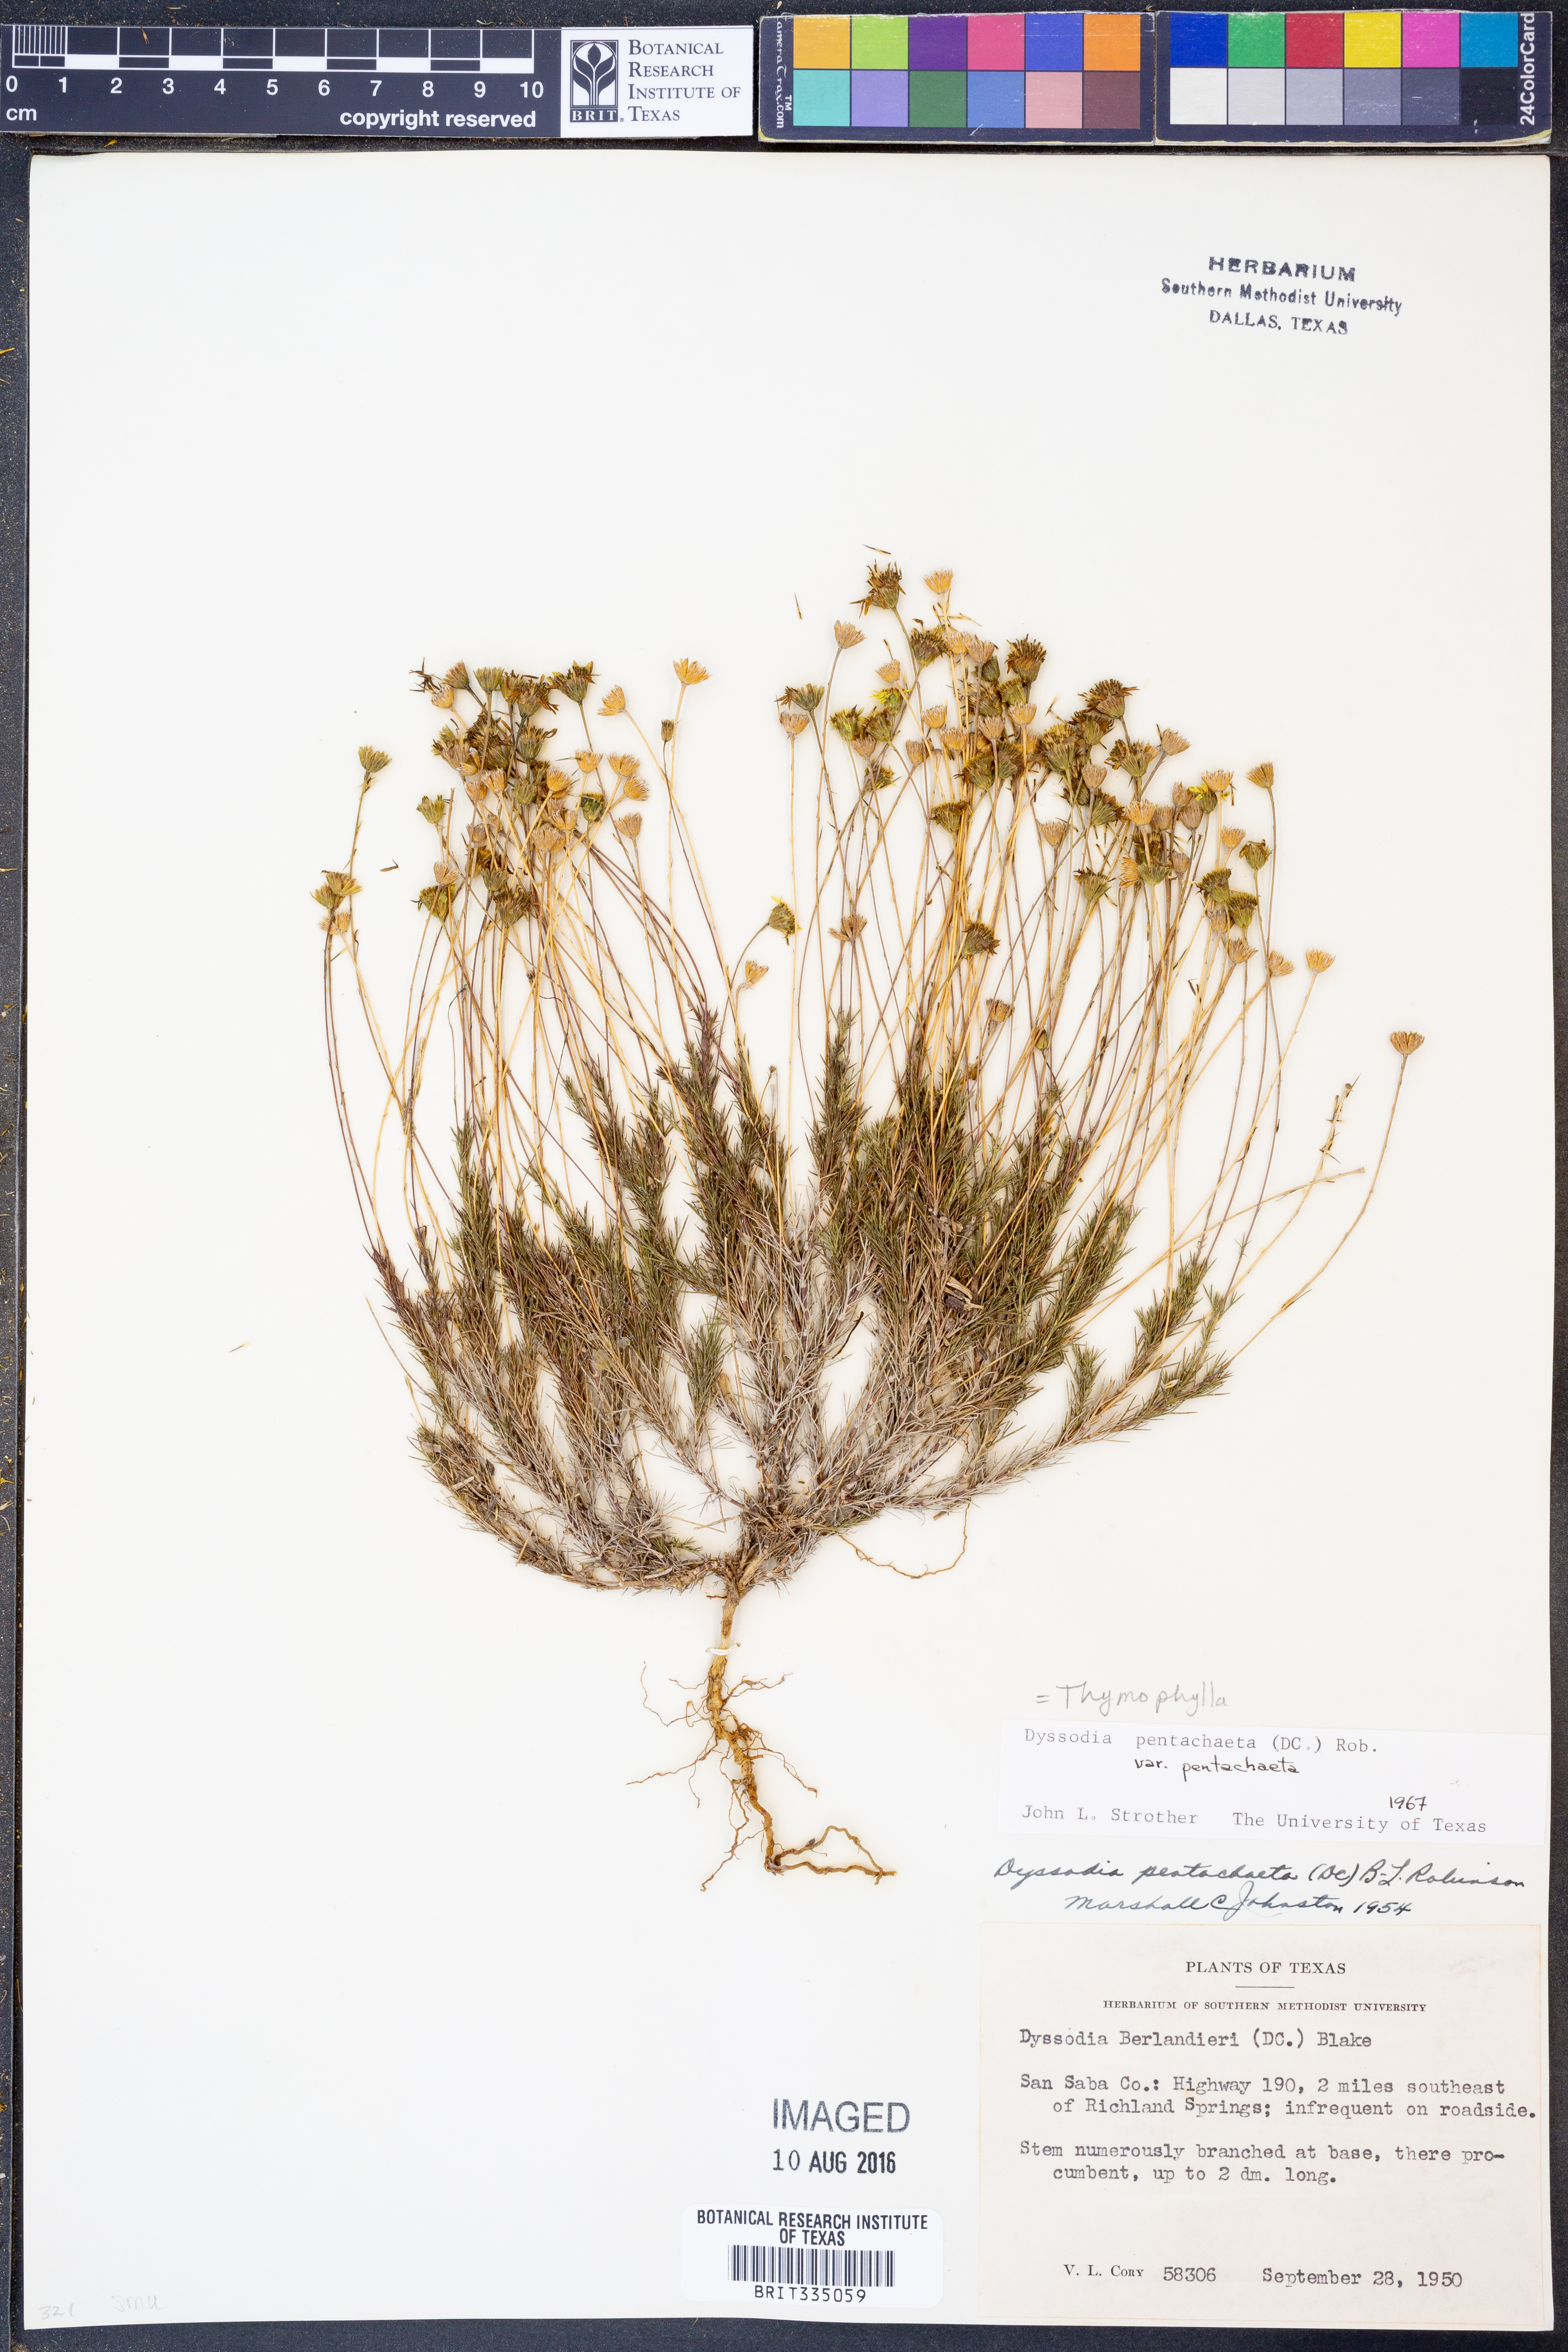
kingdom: Plantae
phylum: Tracheophyta
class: Magnoliopsida
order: Asterales
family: Asteraceae
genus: Thymophylla
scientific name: Thymophylla pentachaeta
